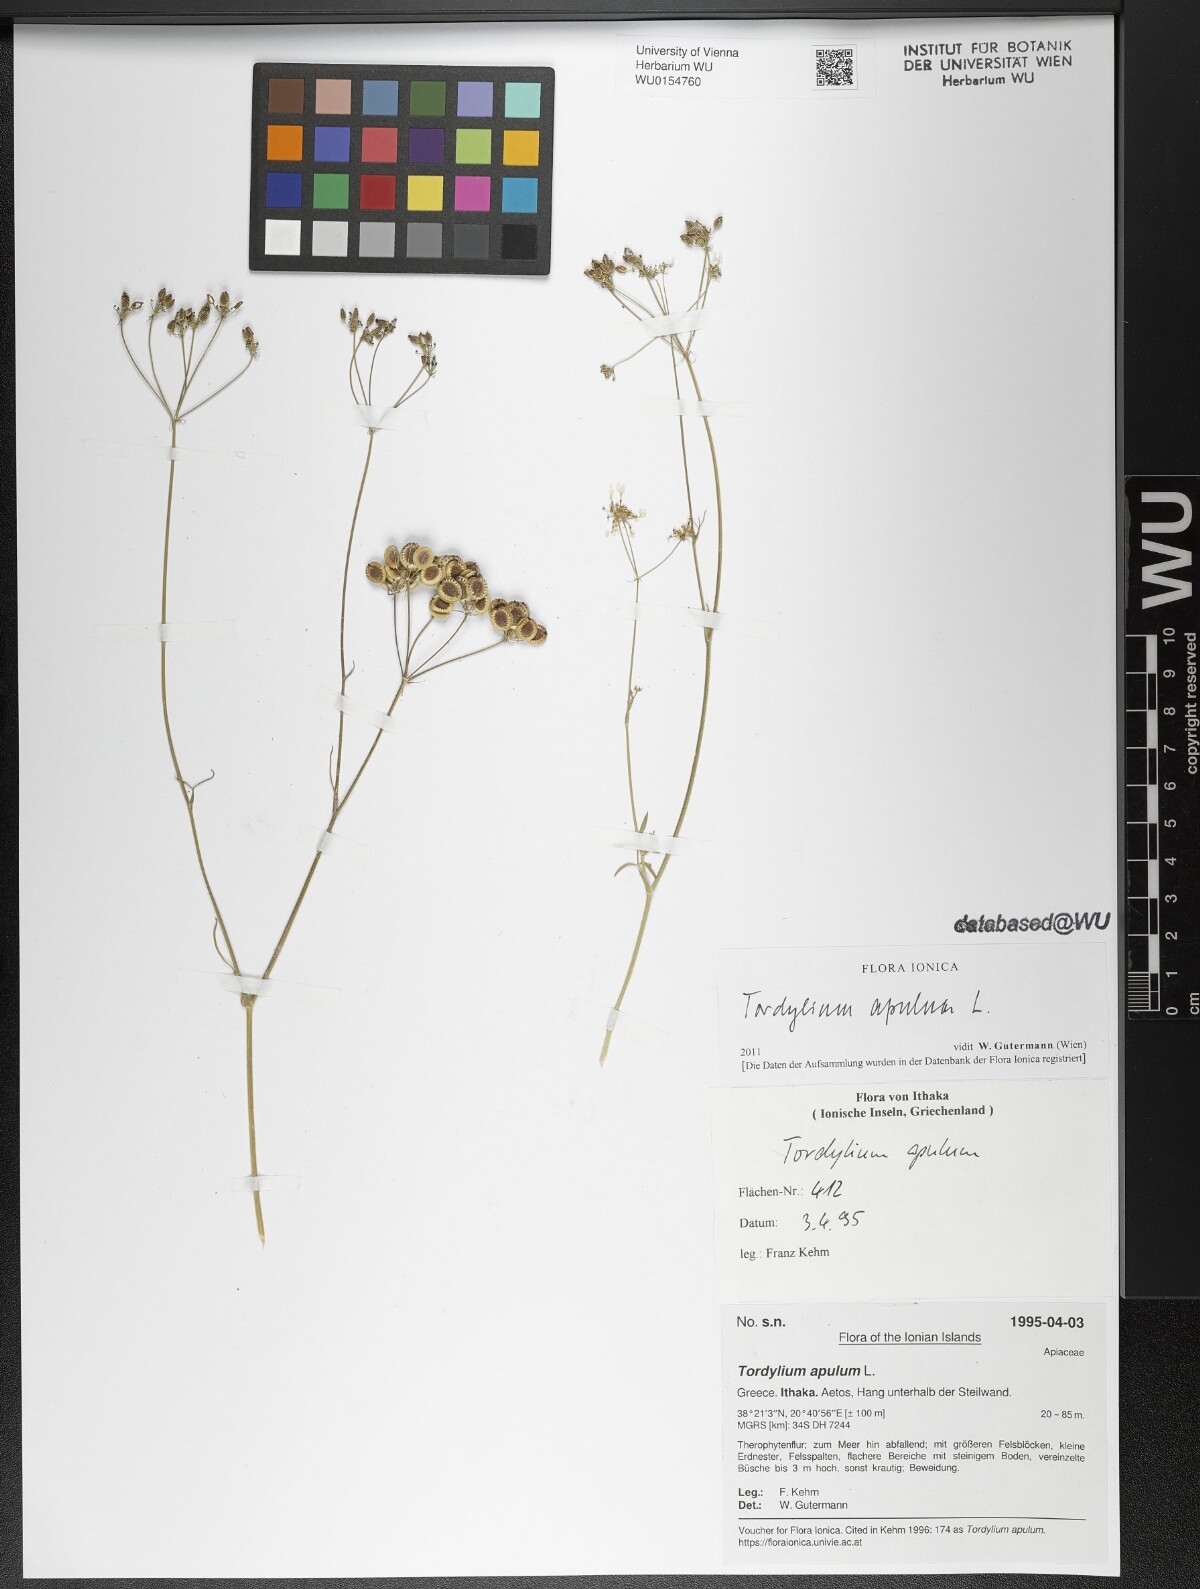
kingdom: Plantae
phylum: Tracheophyta
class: Magnoliopsida
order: Apiales
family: Apiaceae
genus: Tordylium
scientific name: Tordylium apulum
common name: Mediterranean hartwort
